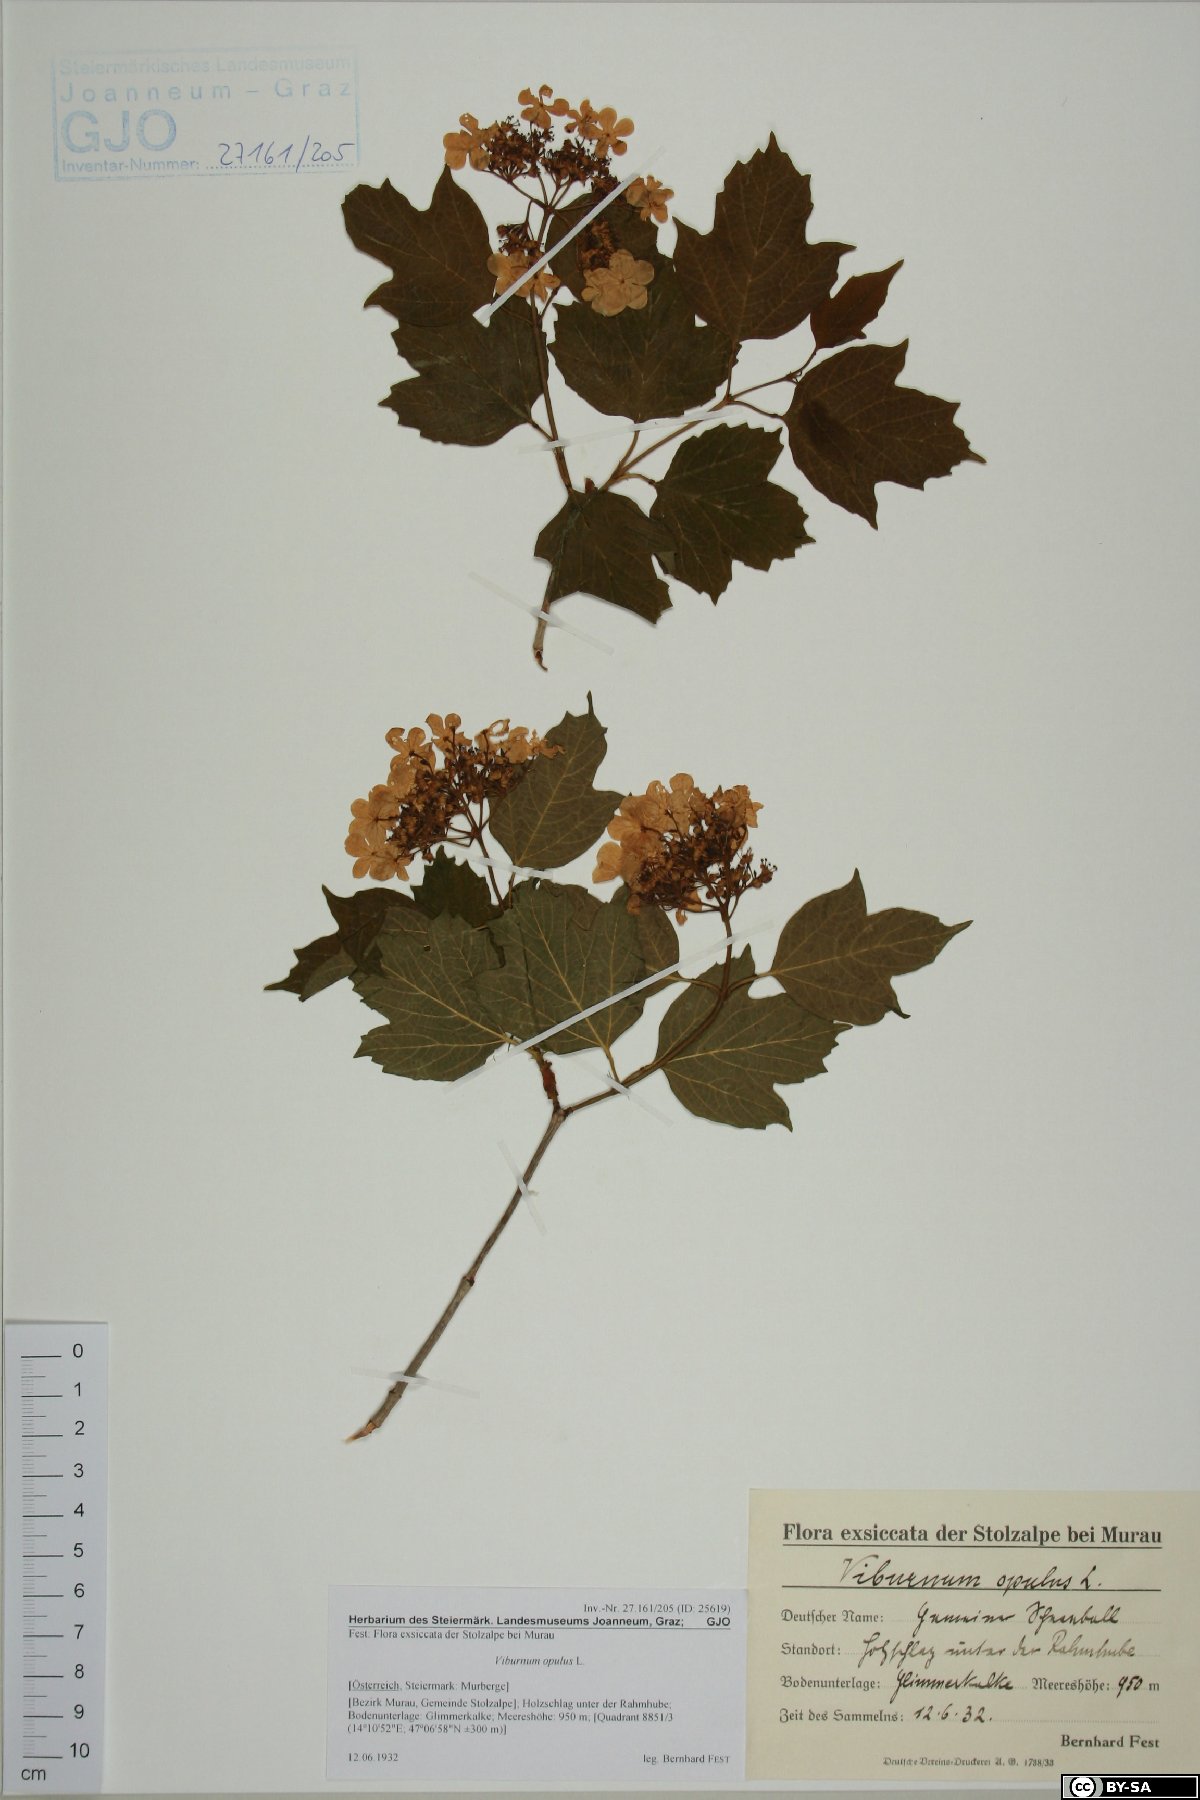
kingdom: Plantae
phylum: Tracheophyta
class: Magnoliopsida
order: Dipsacales
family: Viburnaceae
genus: Viburnum
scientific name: Viburnum opulus
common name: Guelder-rose
